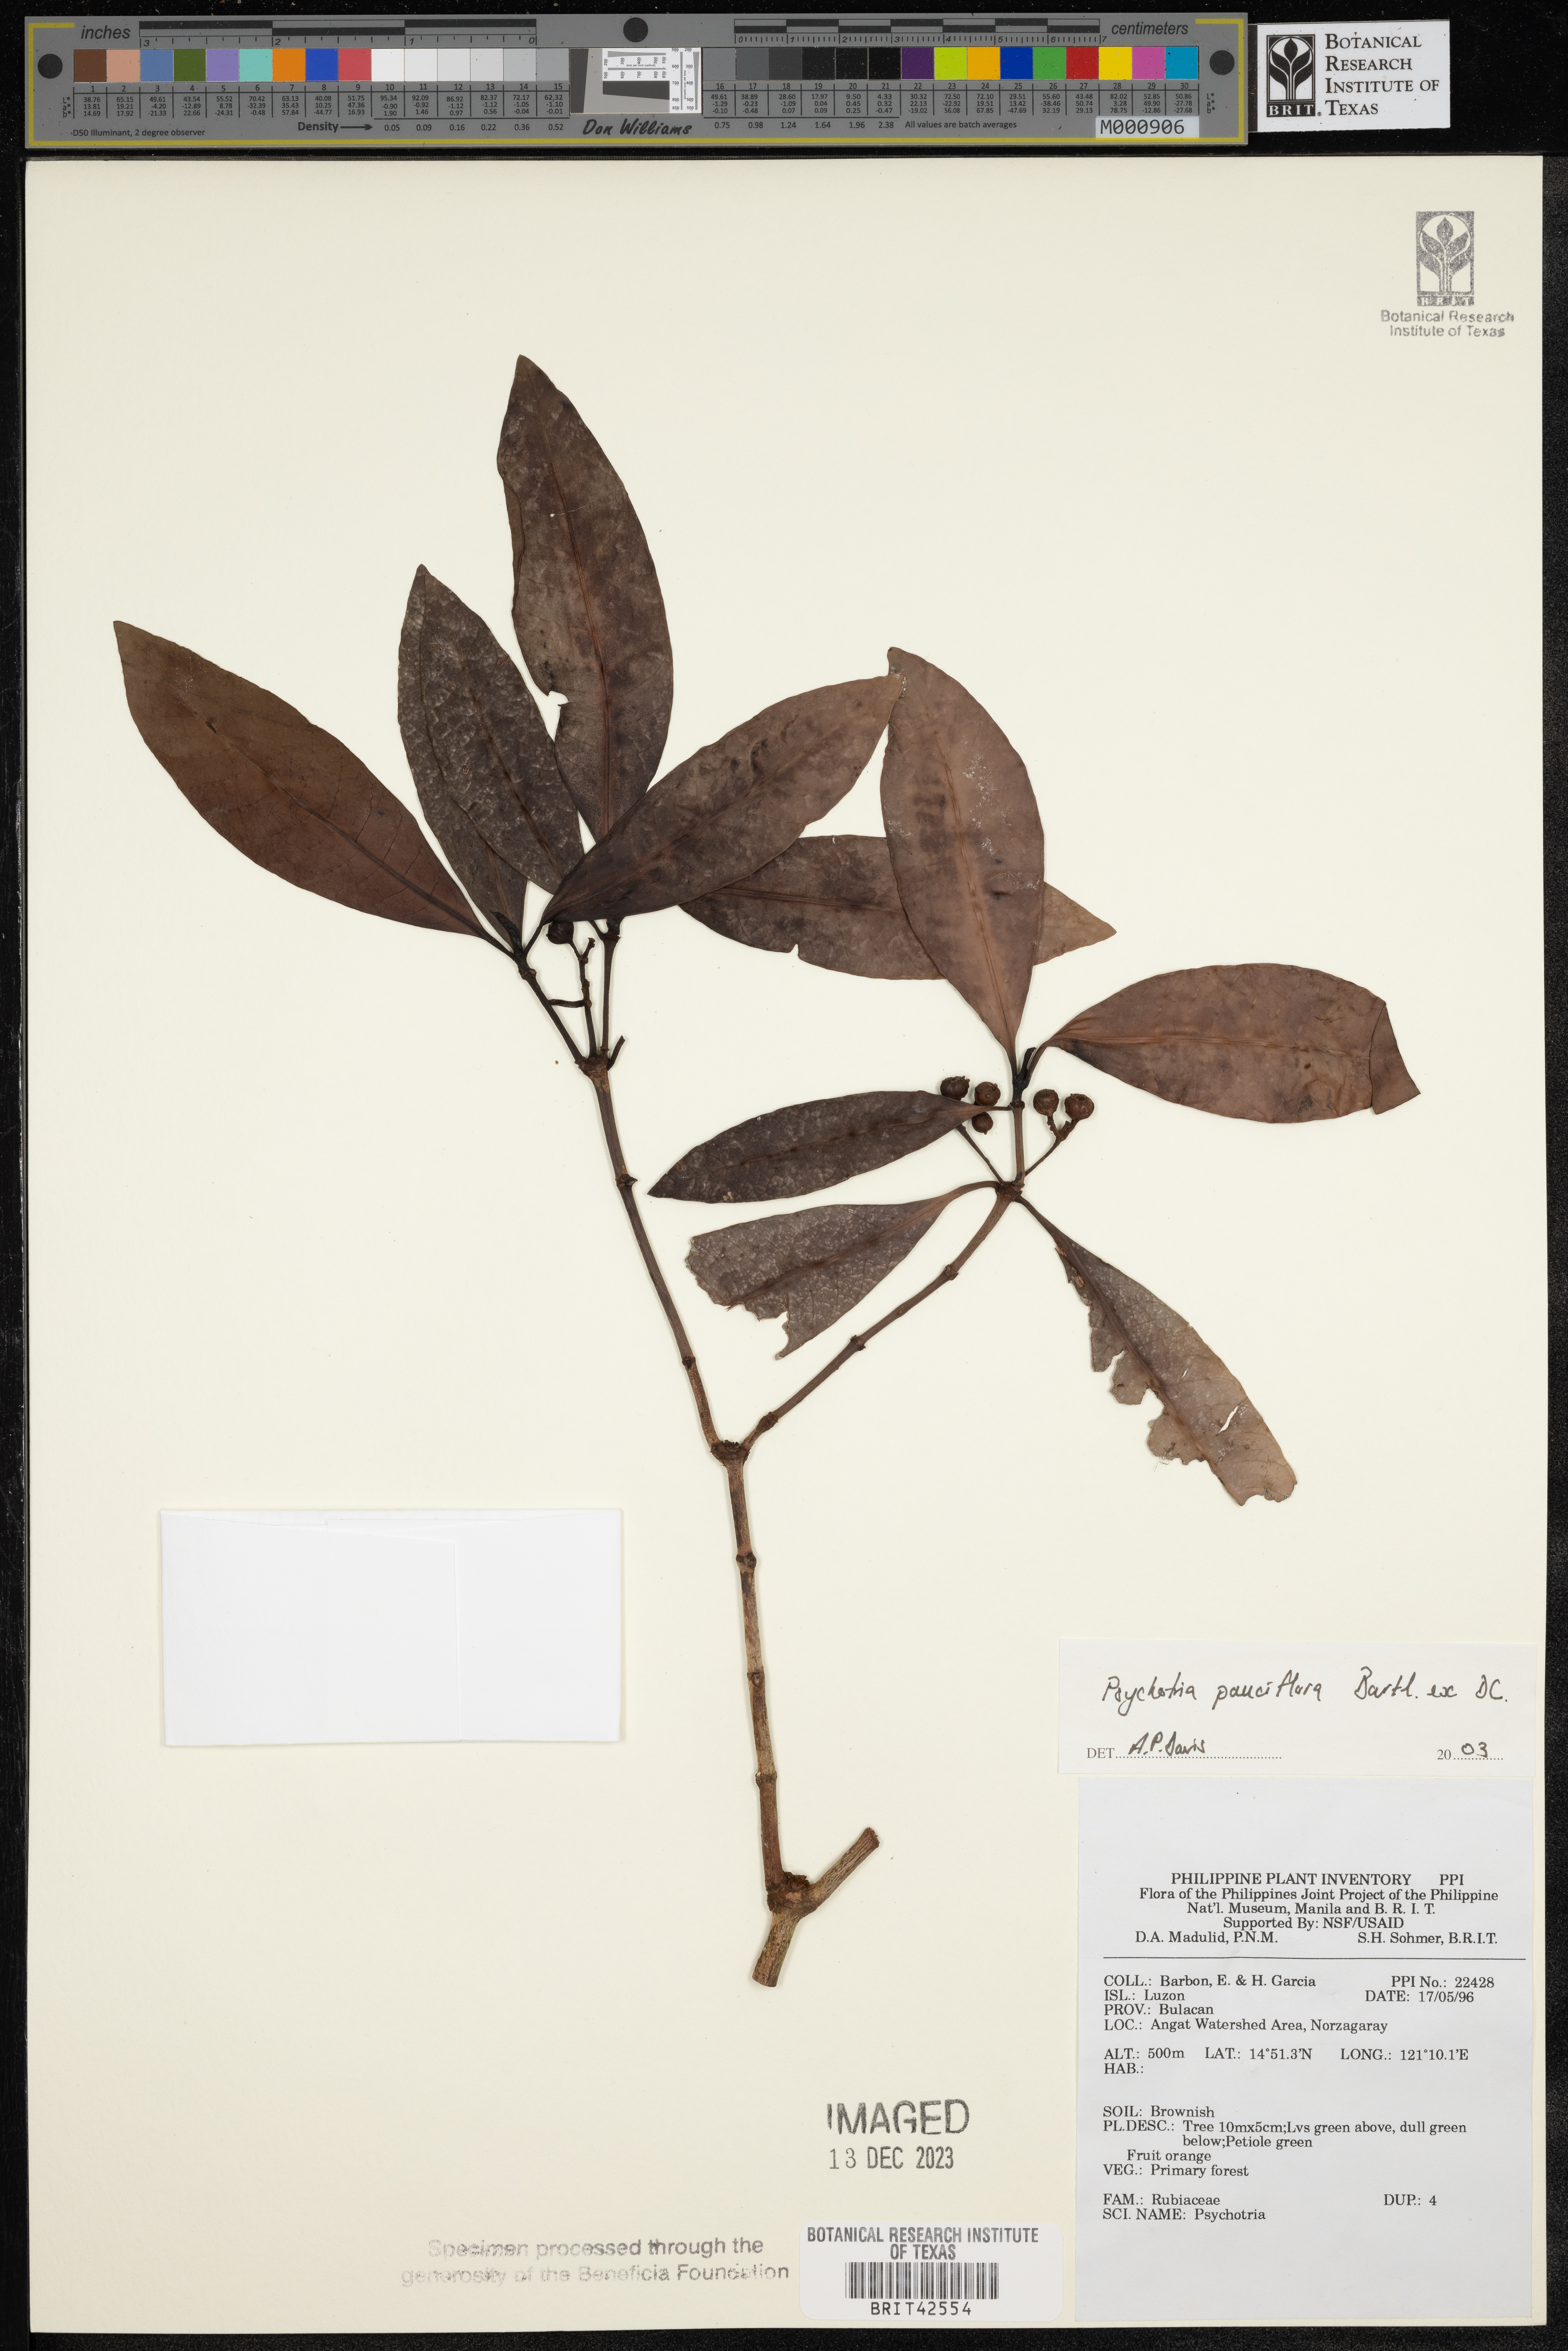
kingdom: Plantae
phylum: Tracheophyta
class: Magnoliopsida
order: Gentianales
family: Rubiaceae
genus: Psychotria
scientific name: Psychotria subobliqua
